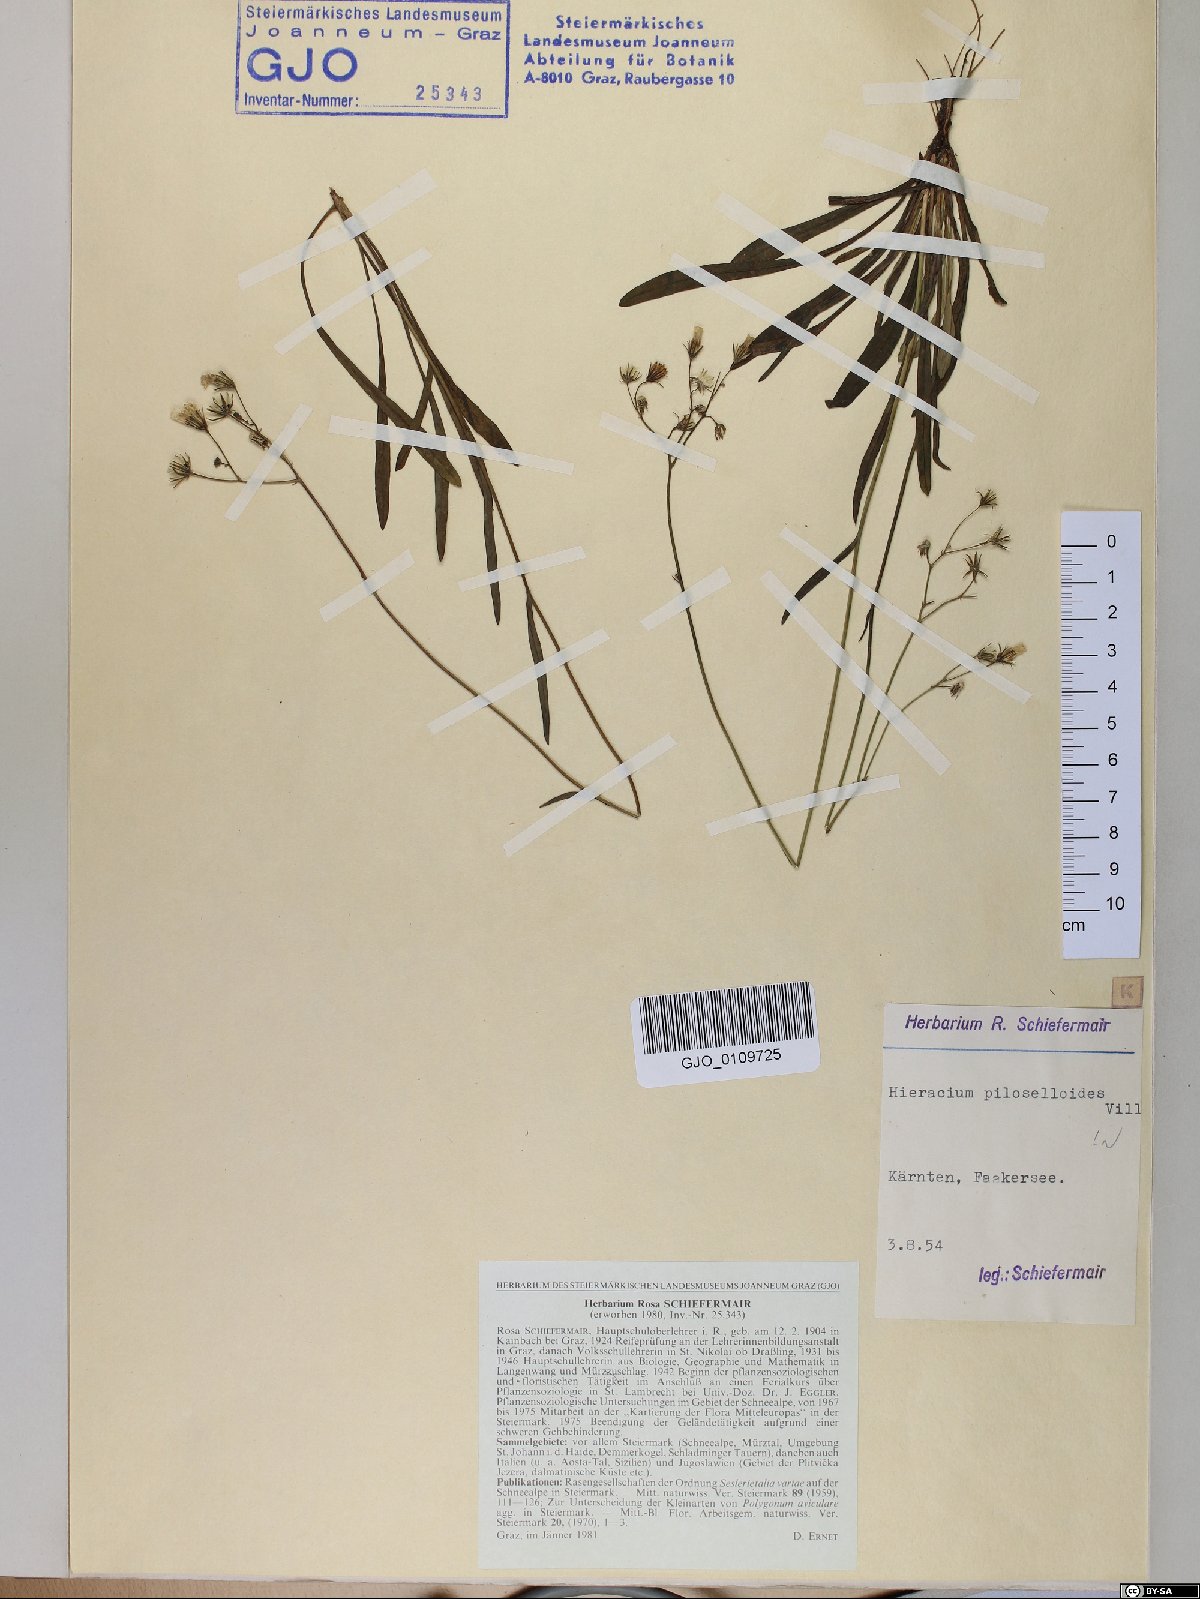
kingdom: Plantae
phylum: Tracheophyta
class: Magnoliopsida
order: Asterales
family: Asteraceae
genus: Pilosella
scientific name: Pilosella piloselloides
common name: Glaucous king-devil
